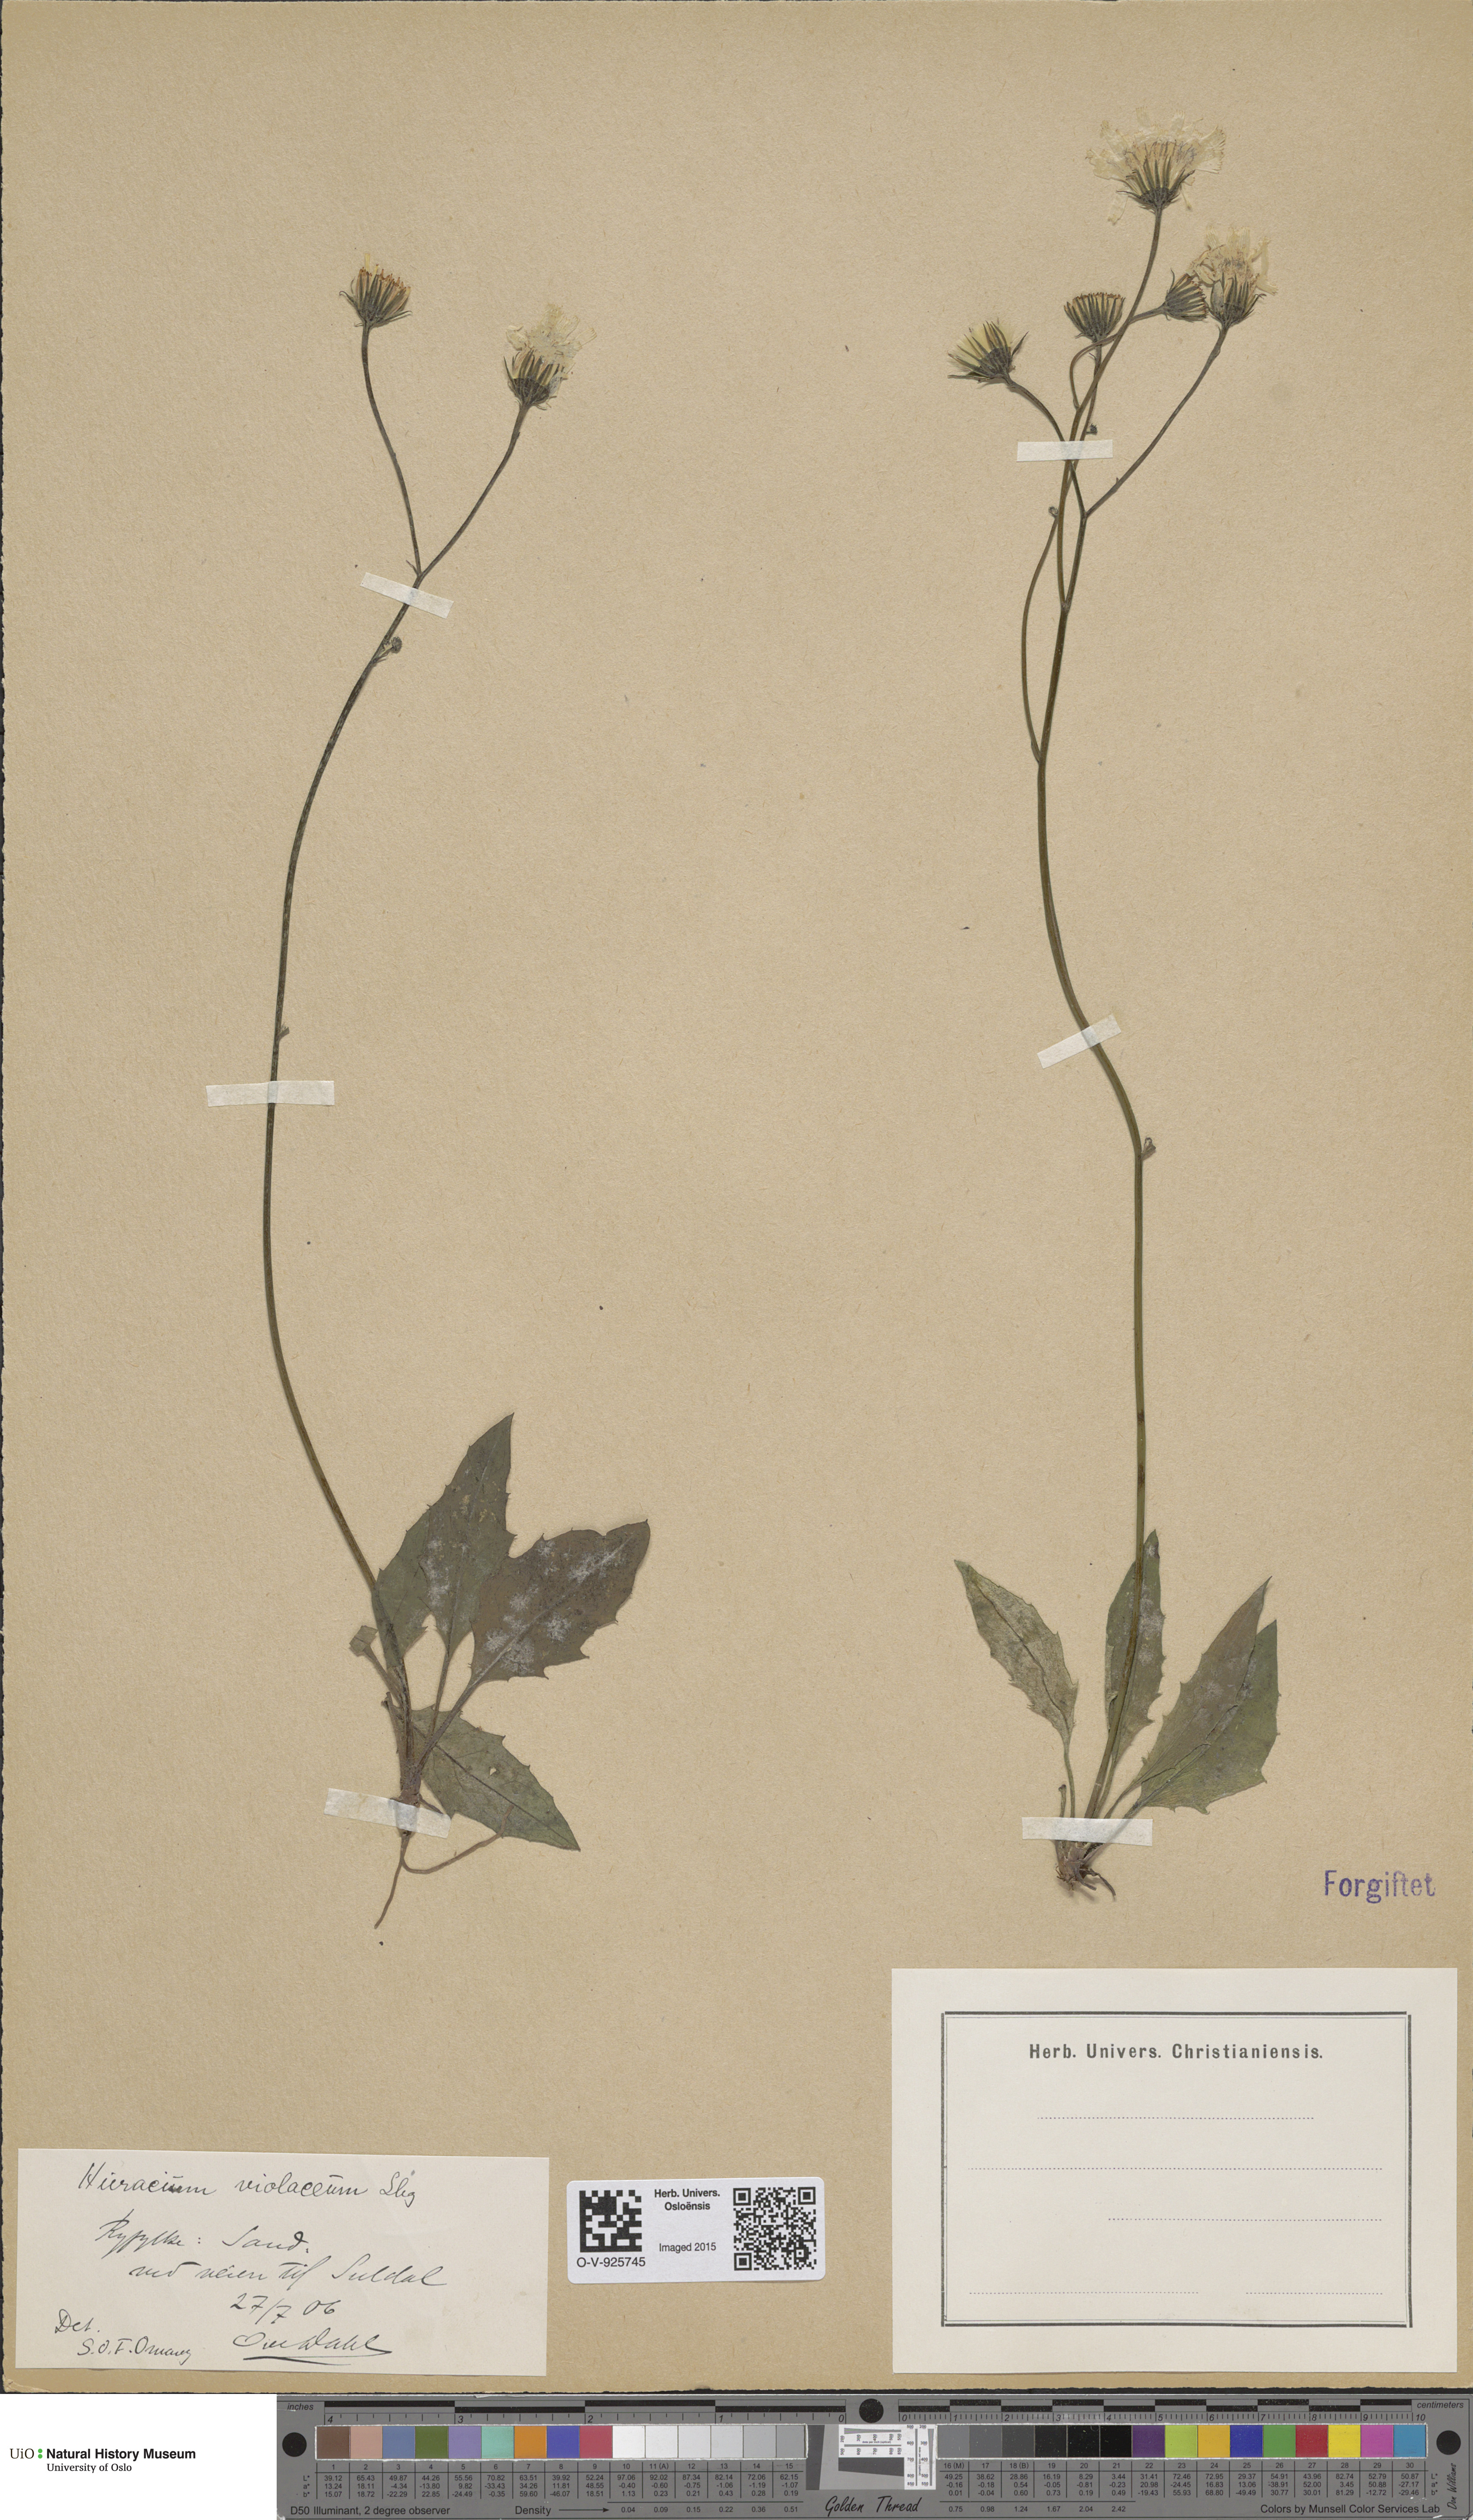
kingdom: Plantae
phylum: Tracheophyta
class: Magnoliopsida
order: Asterales
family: Asteraceae
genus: Hieracium
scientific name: Hieracium
